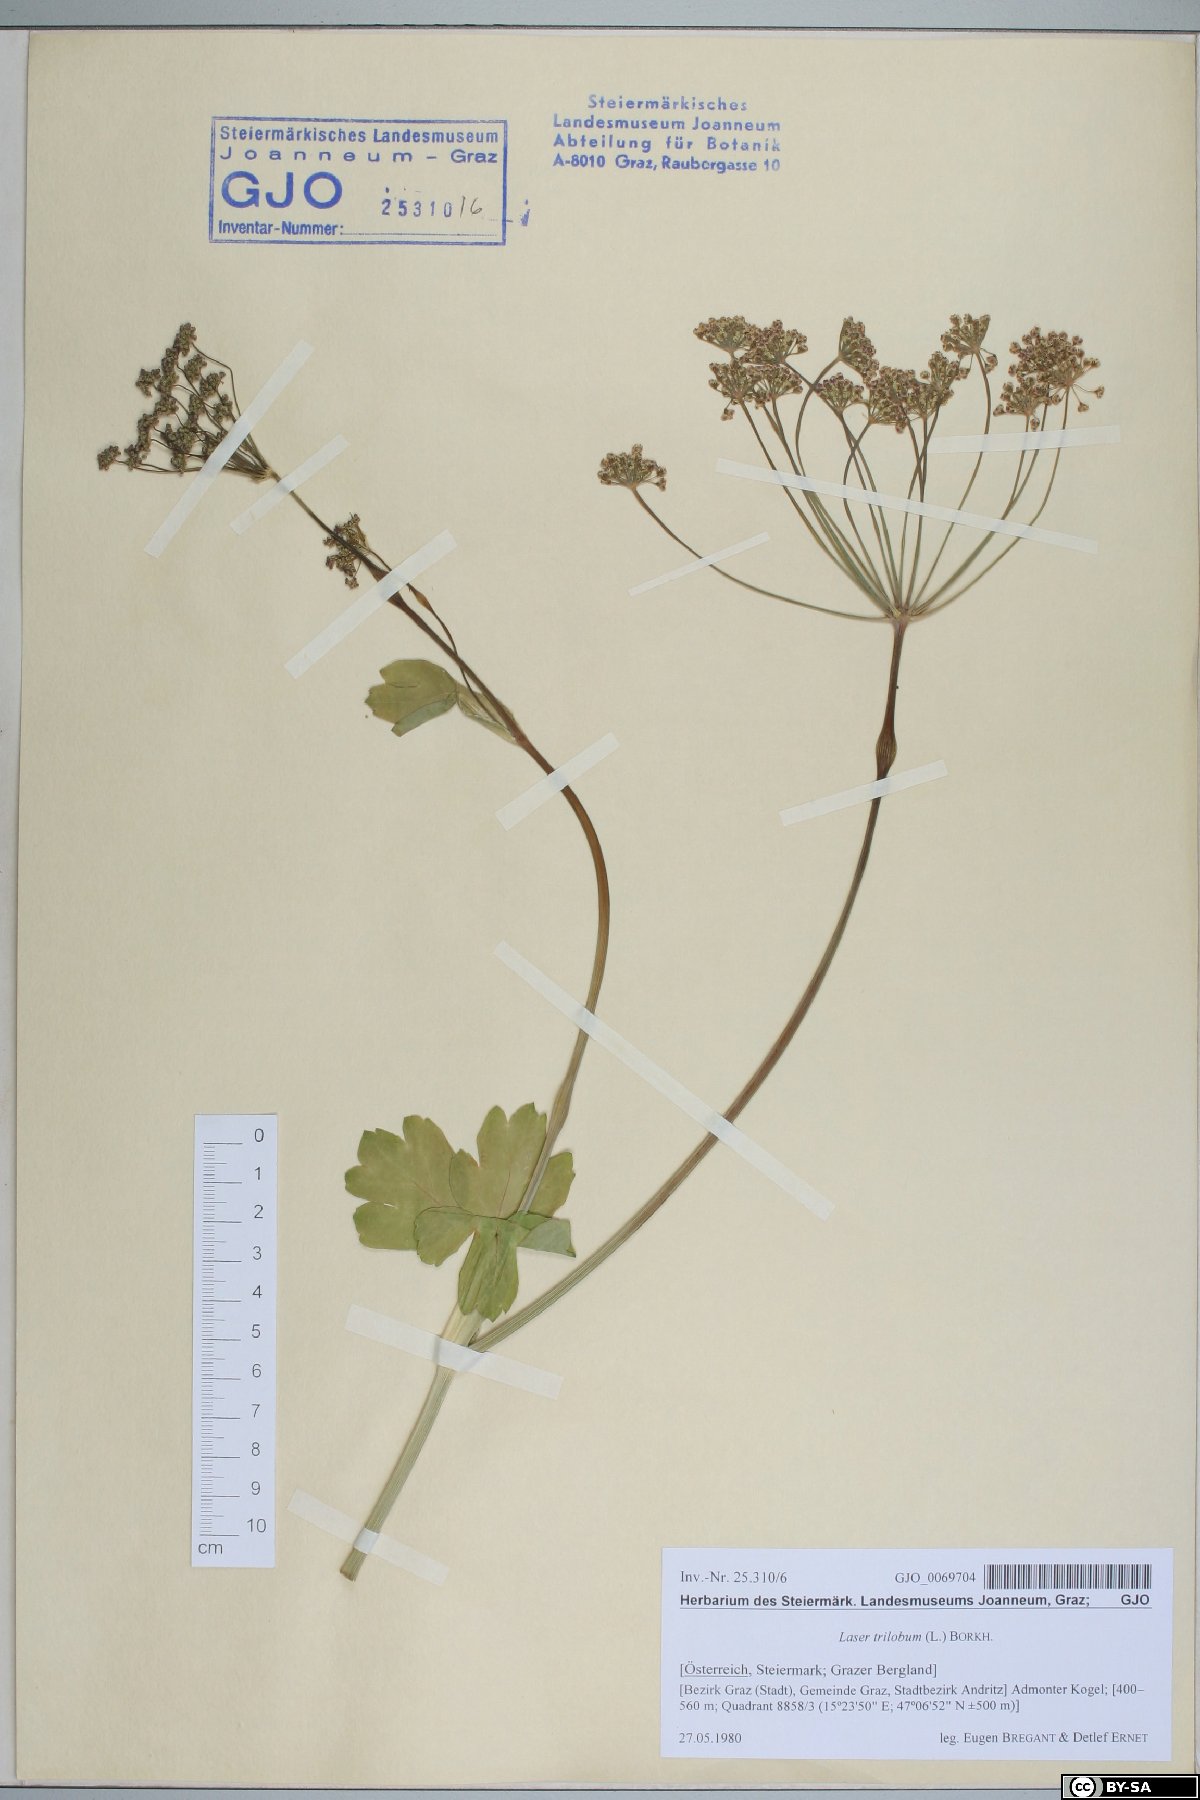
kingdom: Plantae
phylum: Tracheophyta
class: Magnoliopsida
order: Apiales
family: Apiaceae
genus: Laser
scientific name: Laser trilobum
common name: Laser
